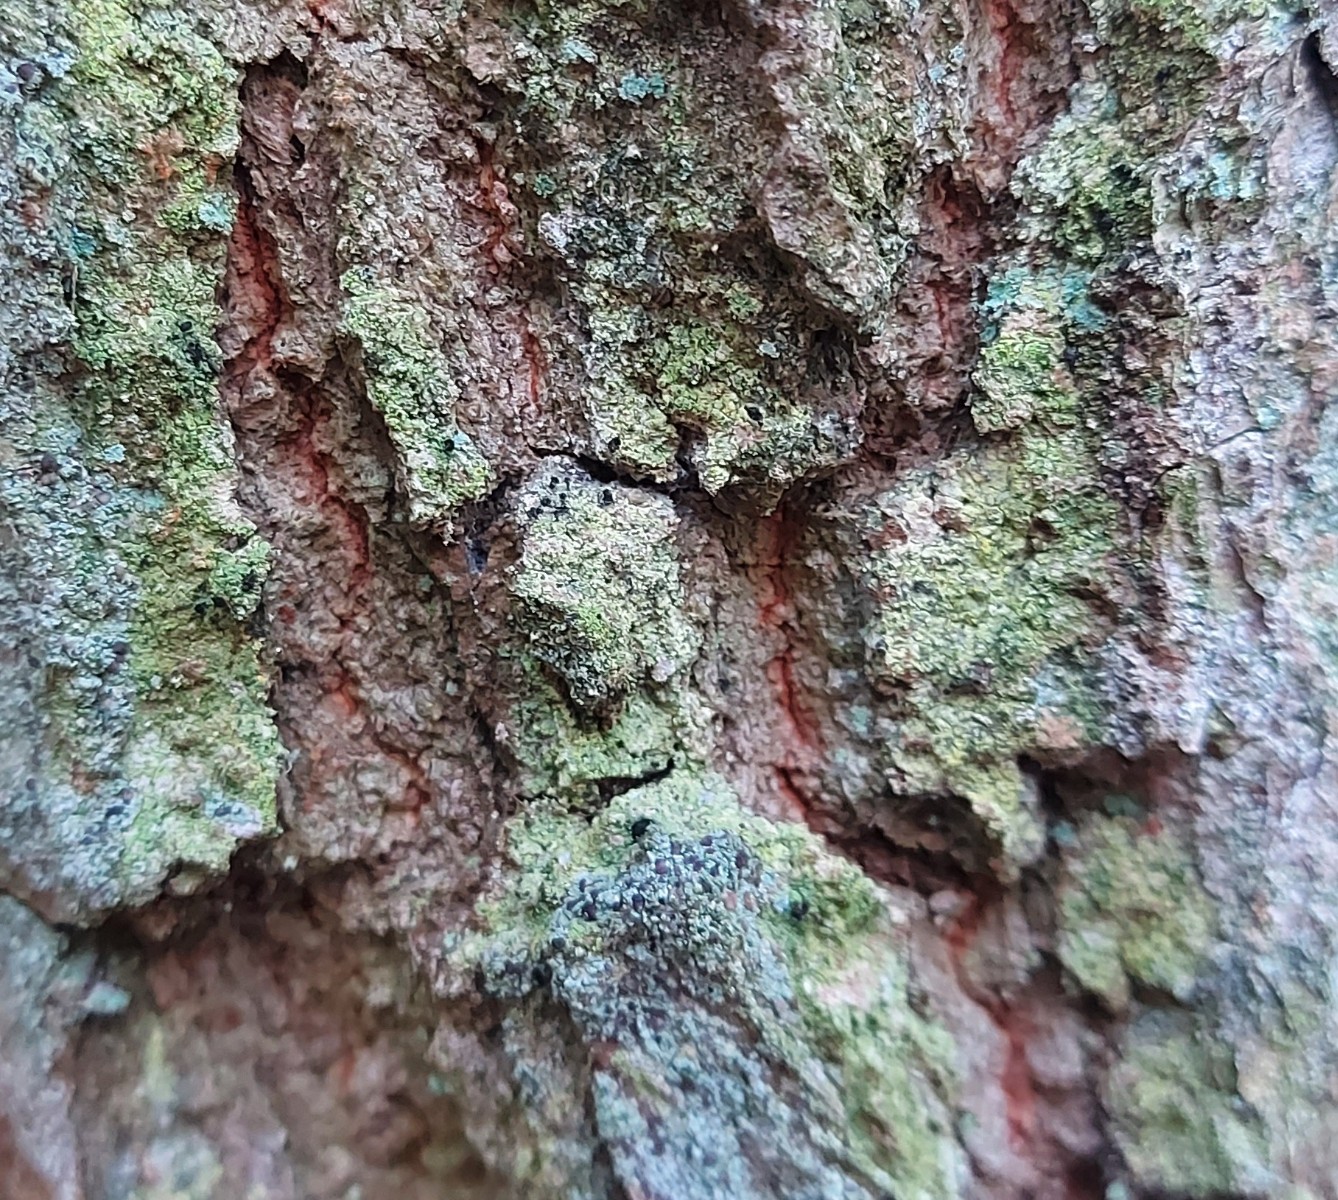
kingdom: Fungi
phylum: Ascomycota
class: Lecanoromycetes
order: Caliciales
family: Caliciaceae
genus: Calicium
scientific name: Calicium viride
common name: gulgrøn nålelav
